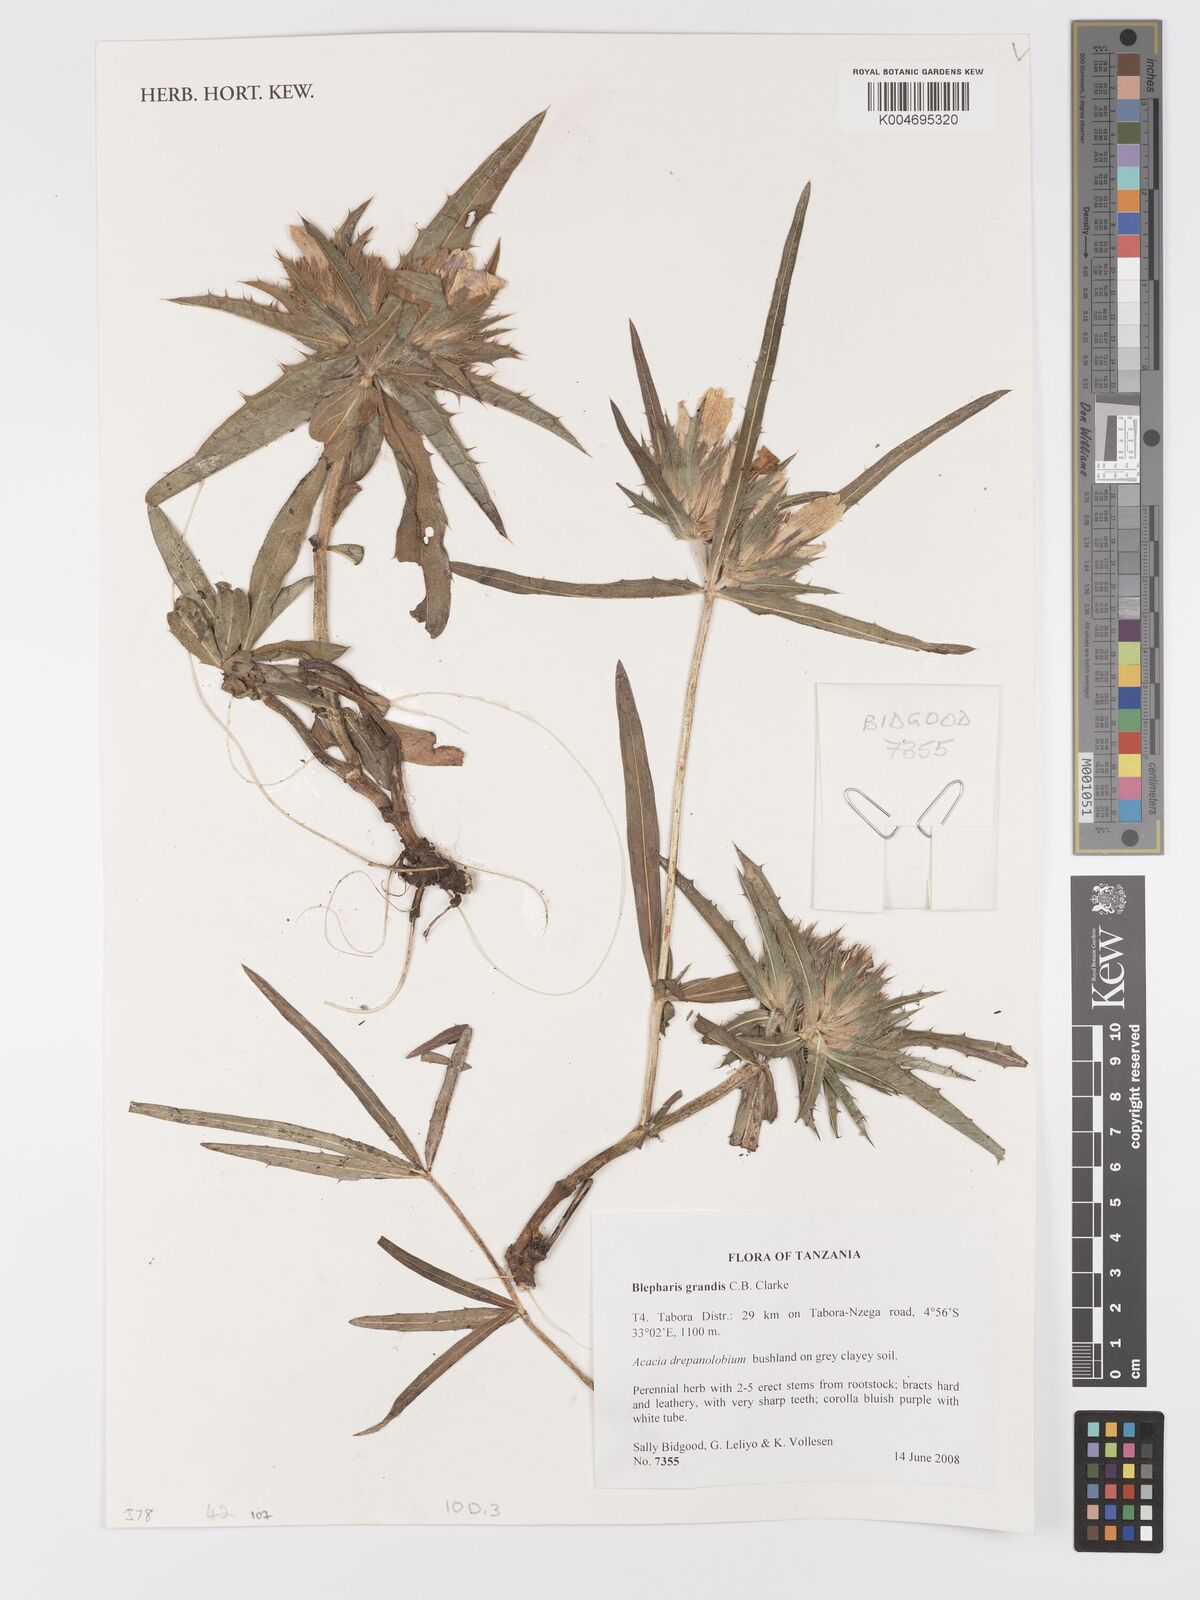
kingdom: Plantae
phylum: Tracheophyta
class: Magnoliopsida
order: Lamiales
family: Acanthaceae
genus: Blepharis
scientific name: Blepharis grandis
